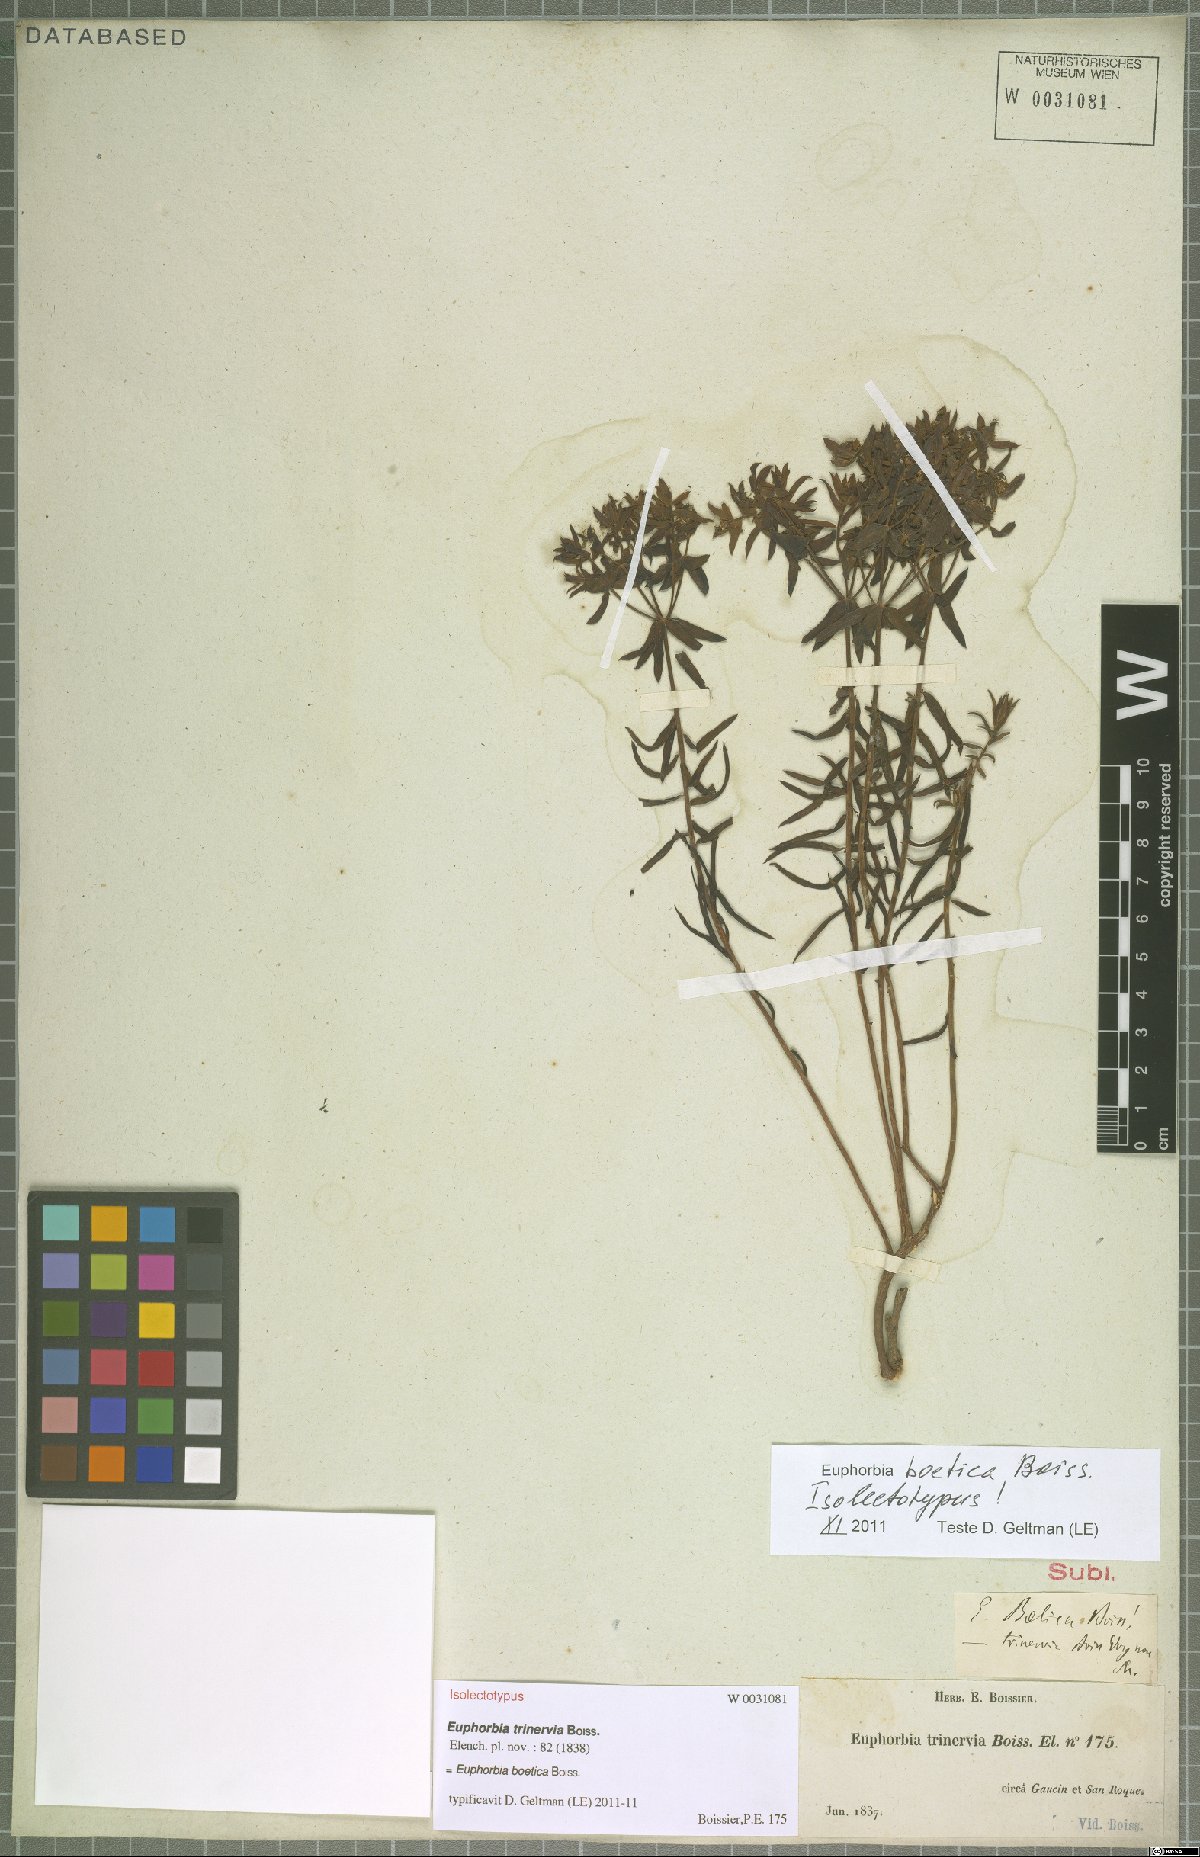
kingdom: Plantae
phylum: Tracheophyta
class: Magnoliopsida
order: Malpighiales
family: Euphorbiaceae
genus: Euphorbia
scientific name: Euphorbia boetica
